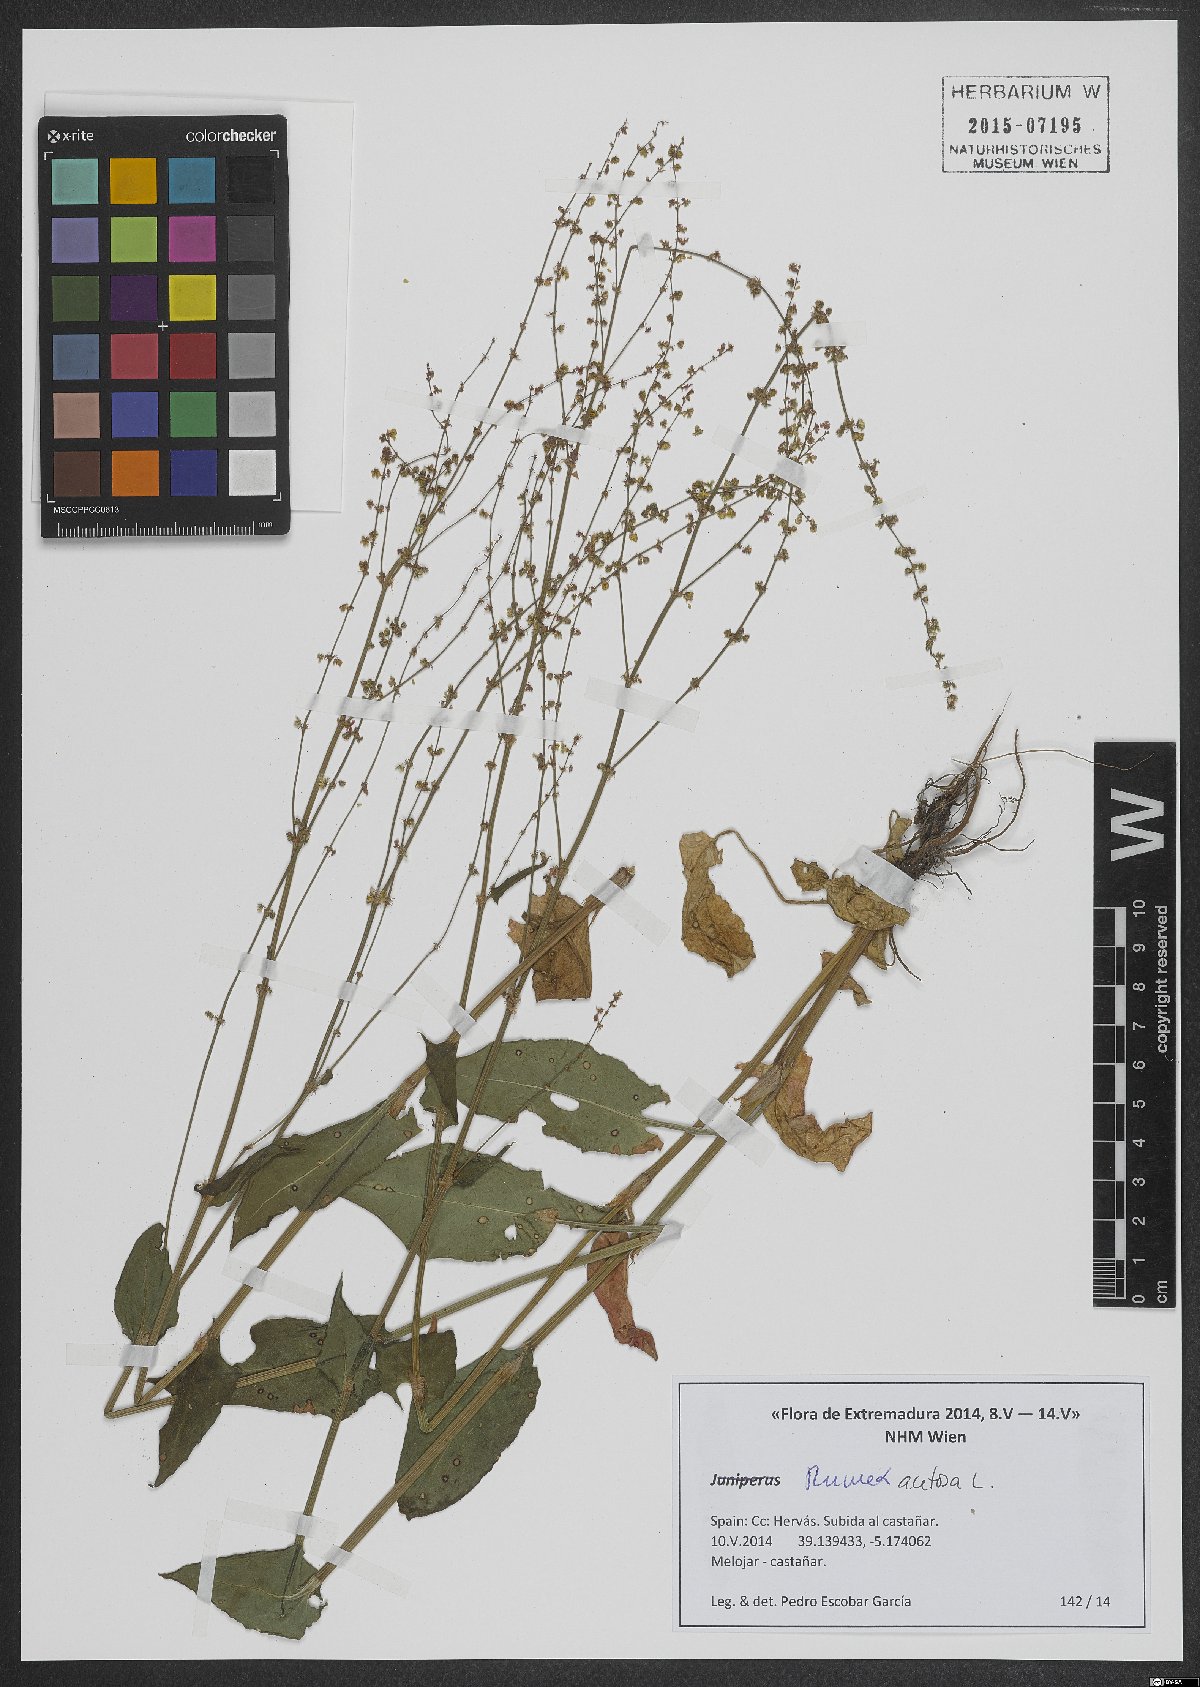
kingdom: Plantae
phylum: Tracheophyta
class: Magnoliopsida
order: Caryophyllales
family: Polygonaceae
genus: Rumex
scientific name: Rumex acetosa
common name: Garden sorrel
